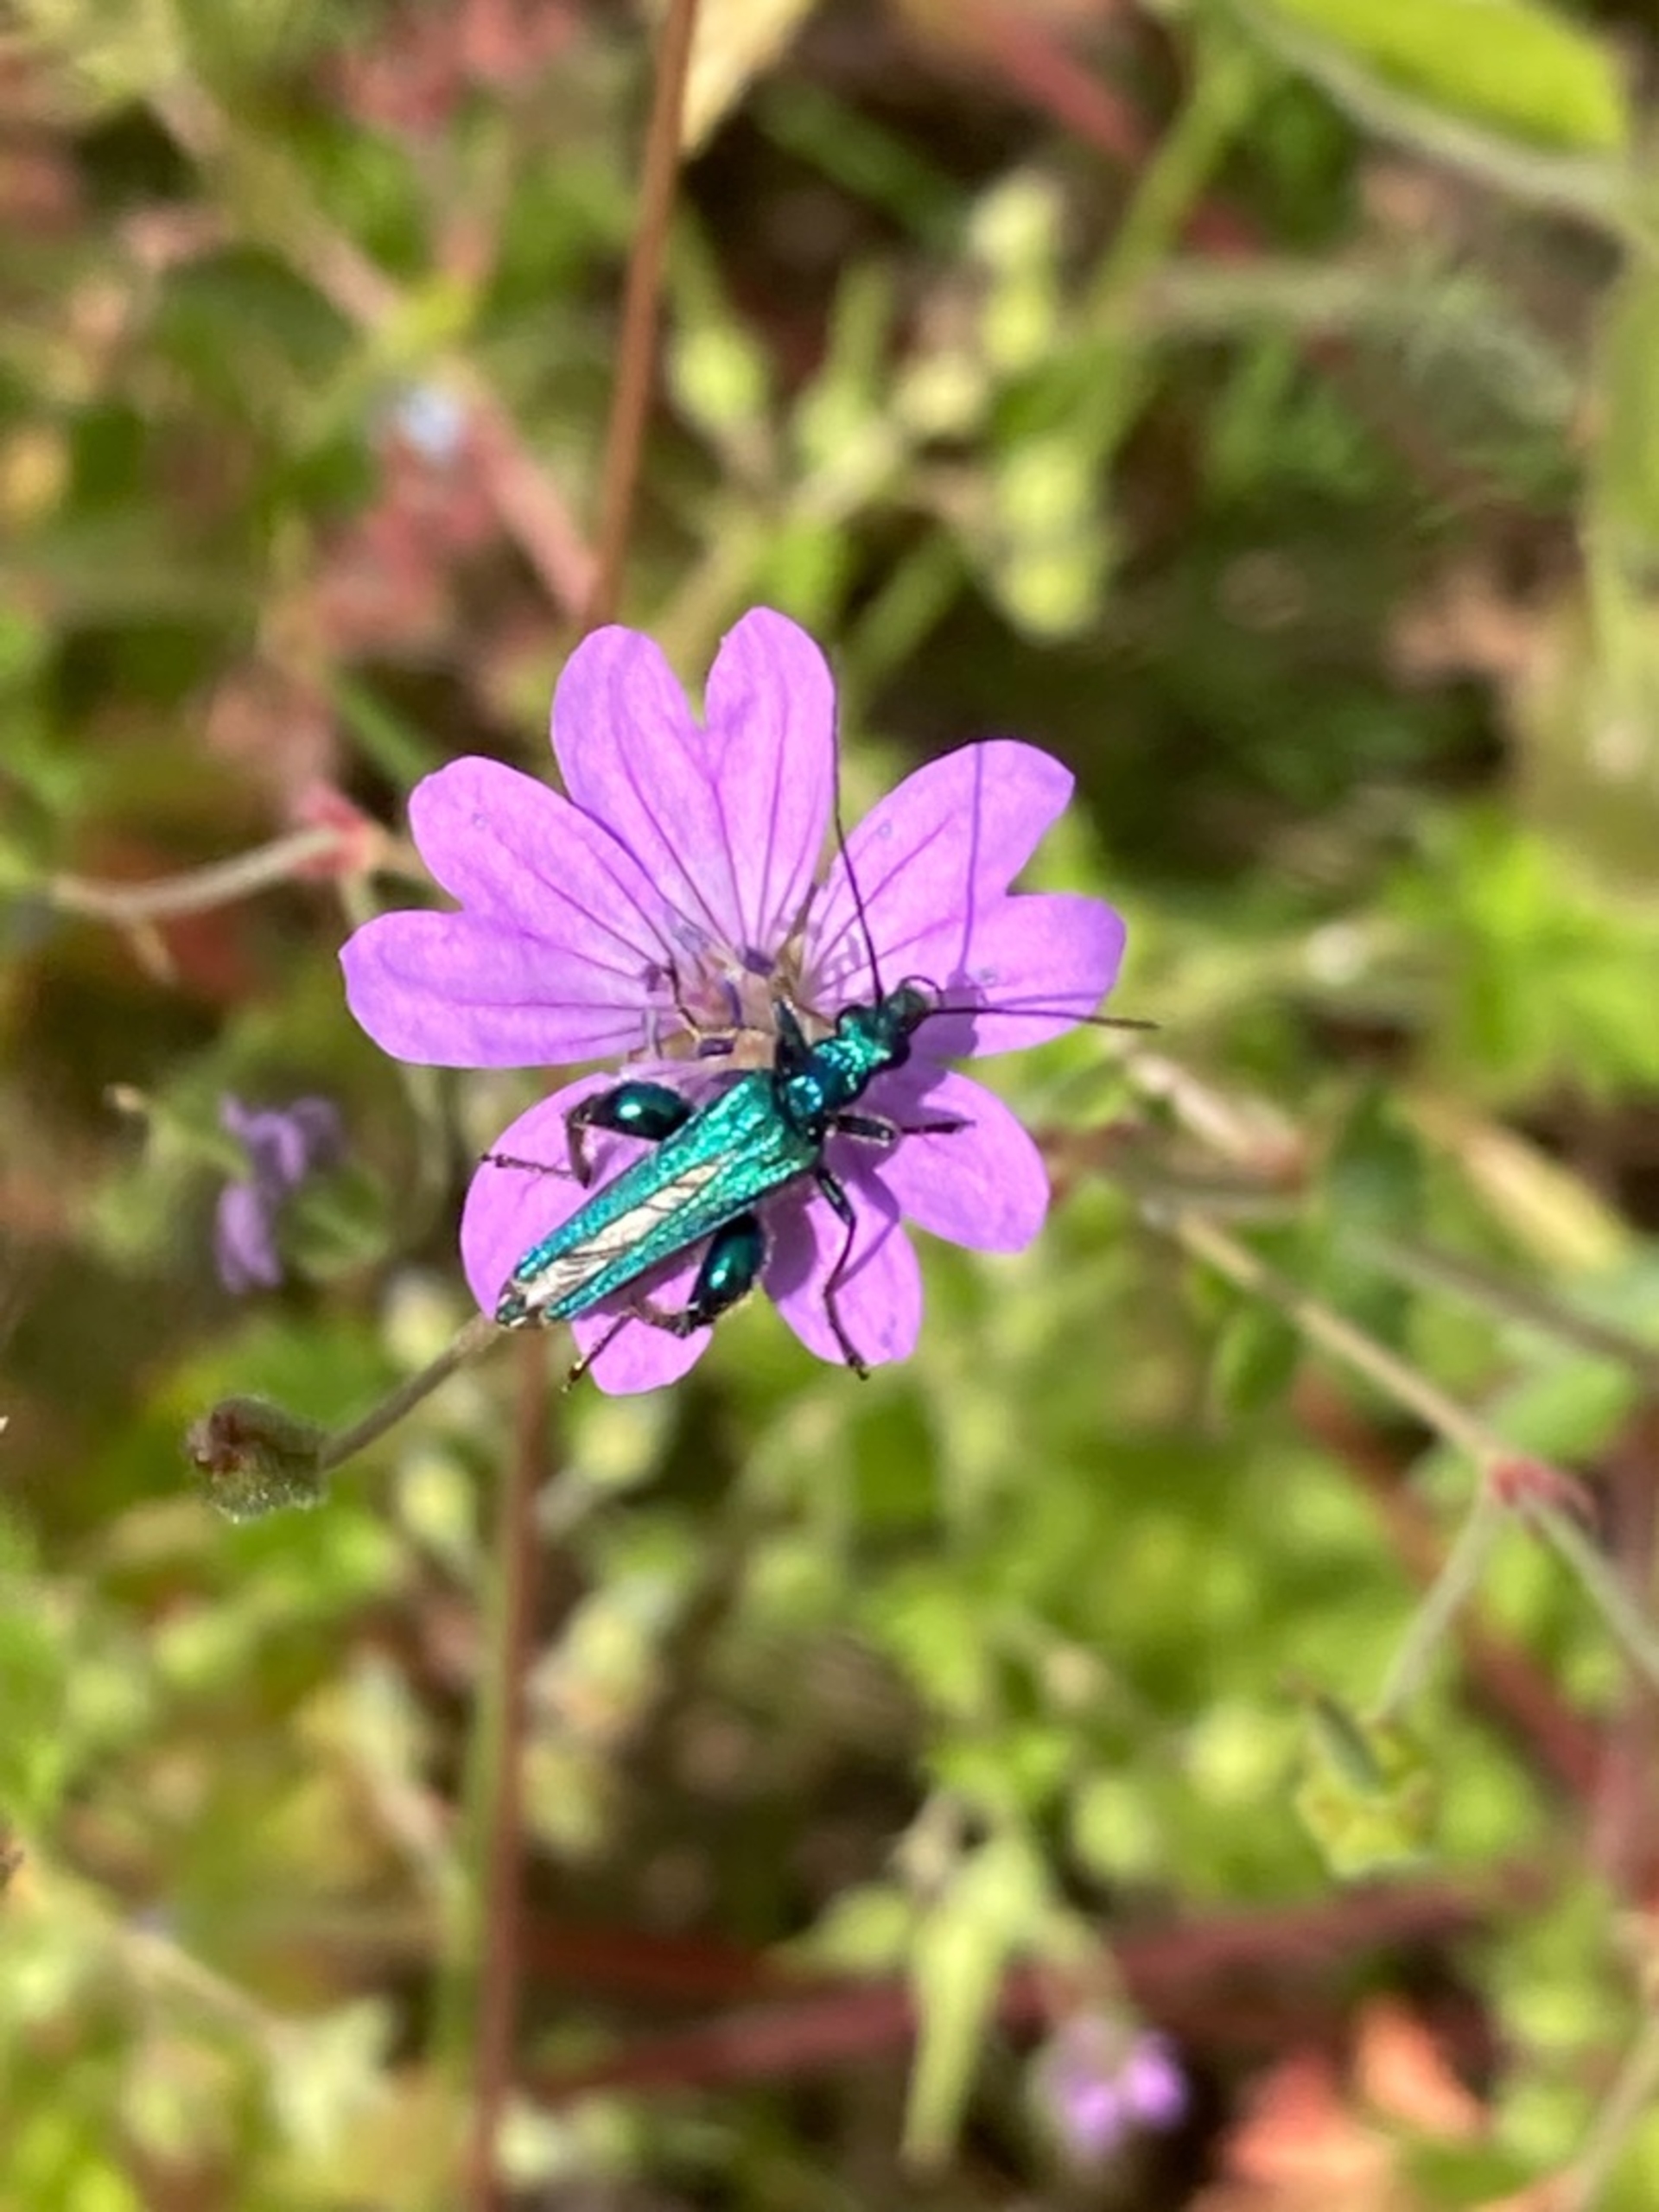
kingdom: Animalia
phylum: Arthropoda
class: Insecta
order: Coleoptera
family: Oedemeridae
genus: Oedemera
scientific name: Oedemera nobilis
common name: Tyklårssolbille
